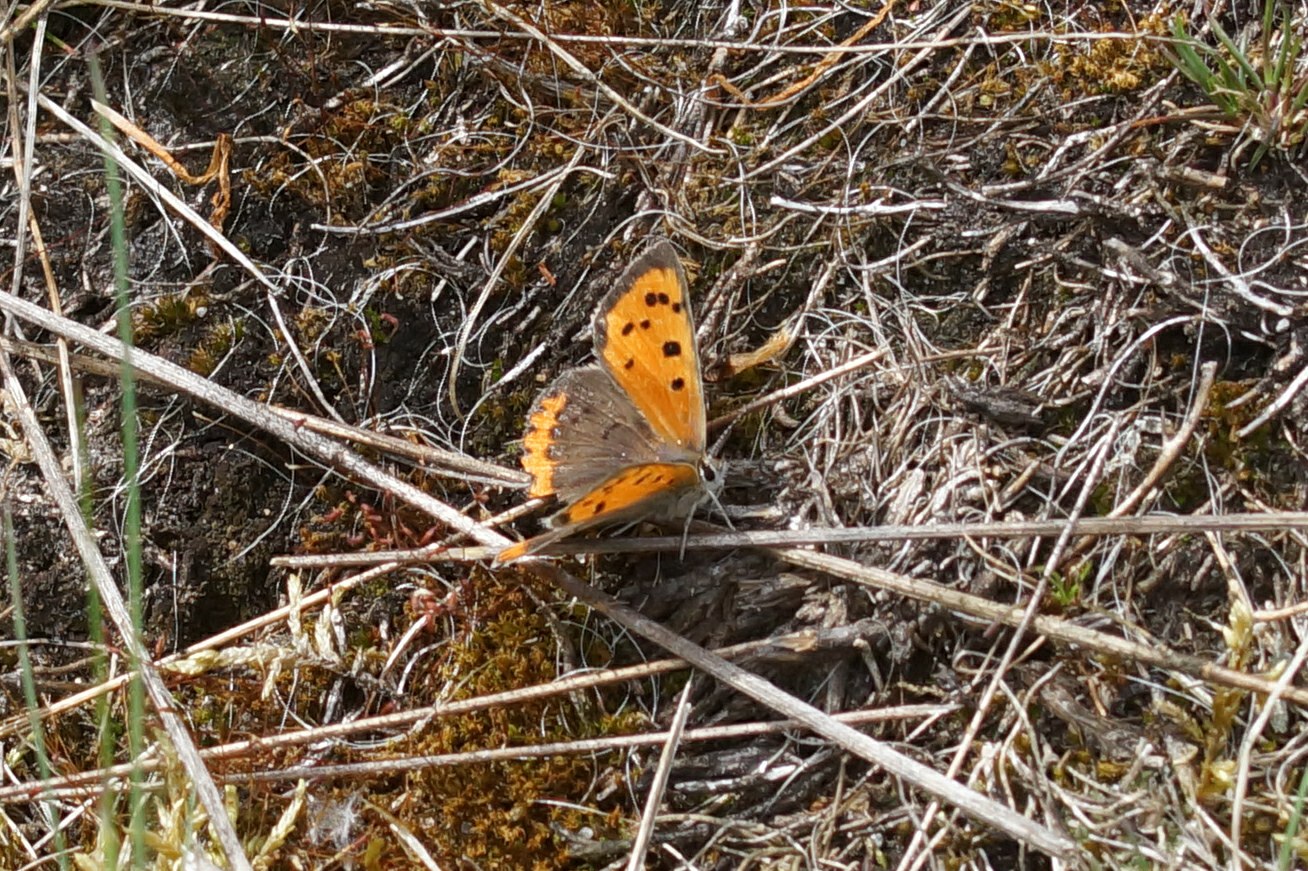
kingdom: Animalia
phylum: Arthropoda
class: Insecta
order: Lepidoptera
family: Lycaenidae
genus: Lycaena
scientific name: Lycaena phlaeas
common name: Lille ildfugl
